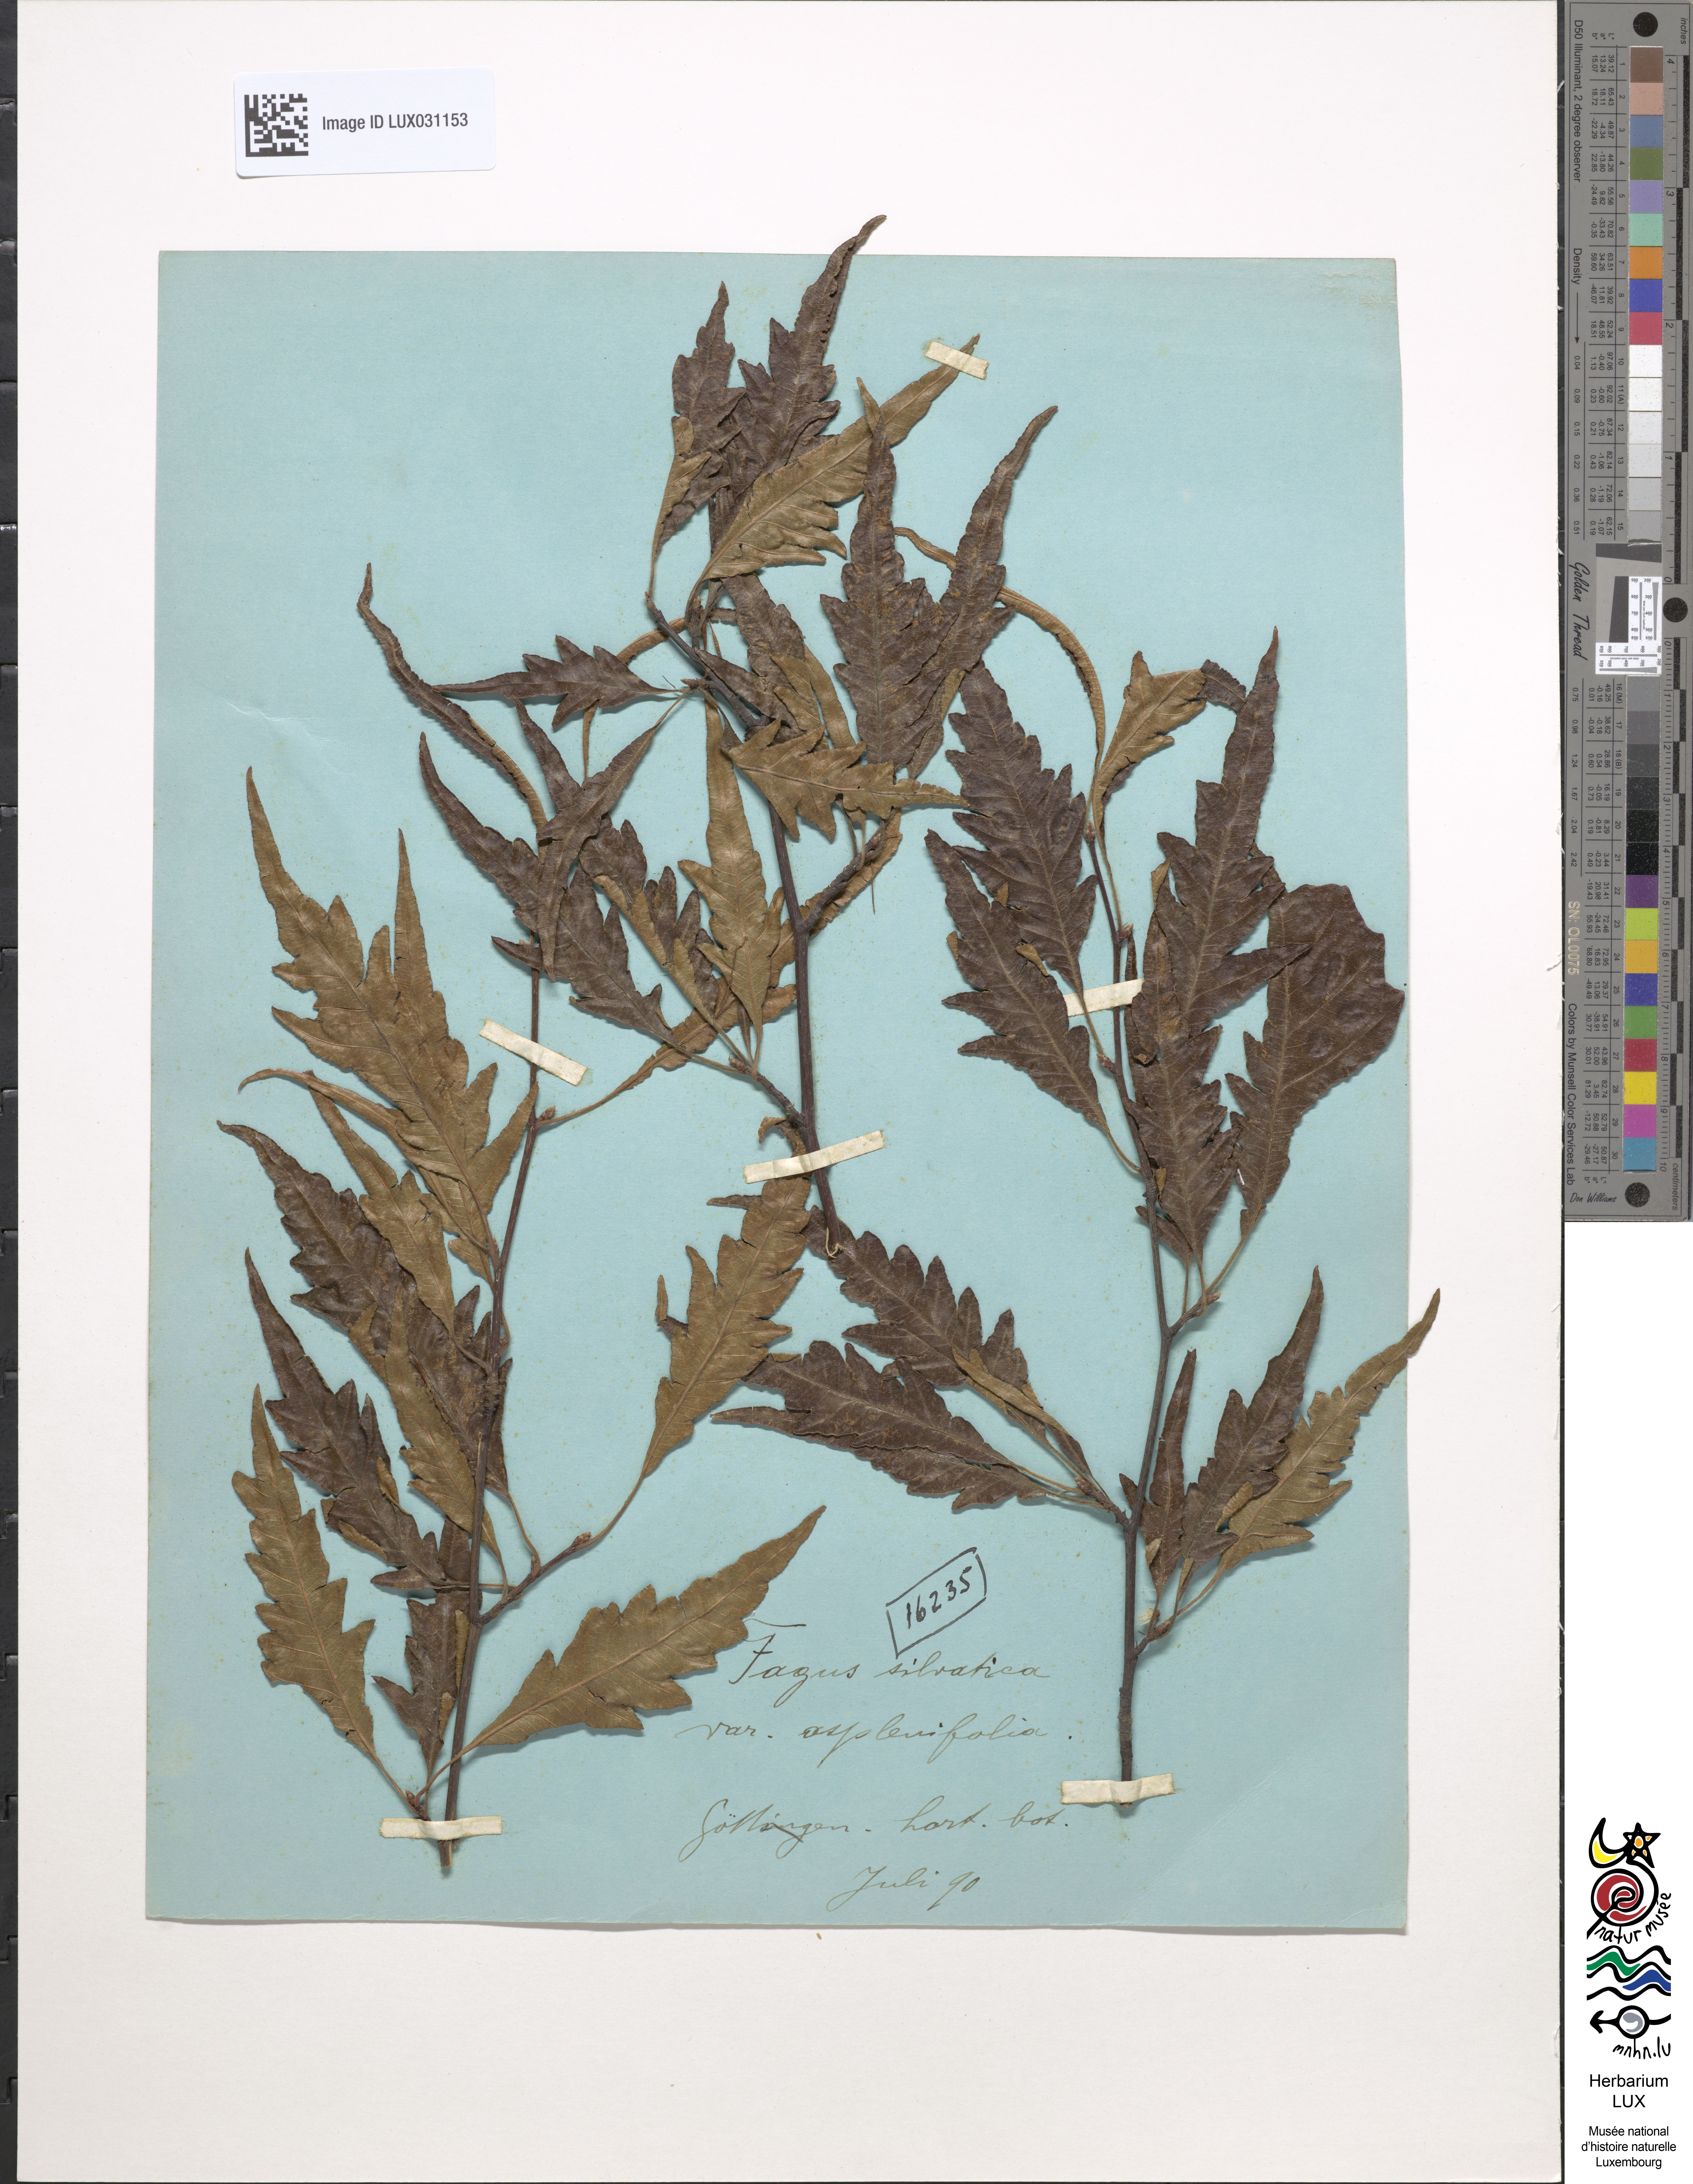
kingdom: Plantae
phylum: Tracheophyta
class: Magnoliopsida
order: Fagales
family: Fagaceae
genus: Fagus
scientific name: Fagus sylvatica
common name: Beech
